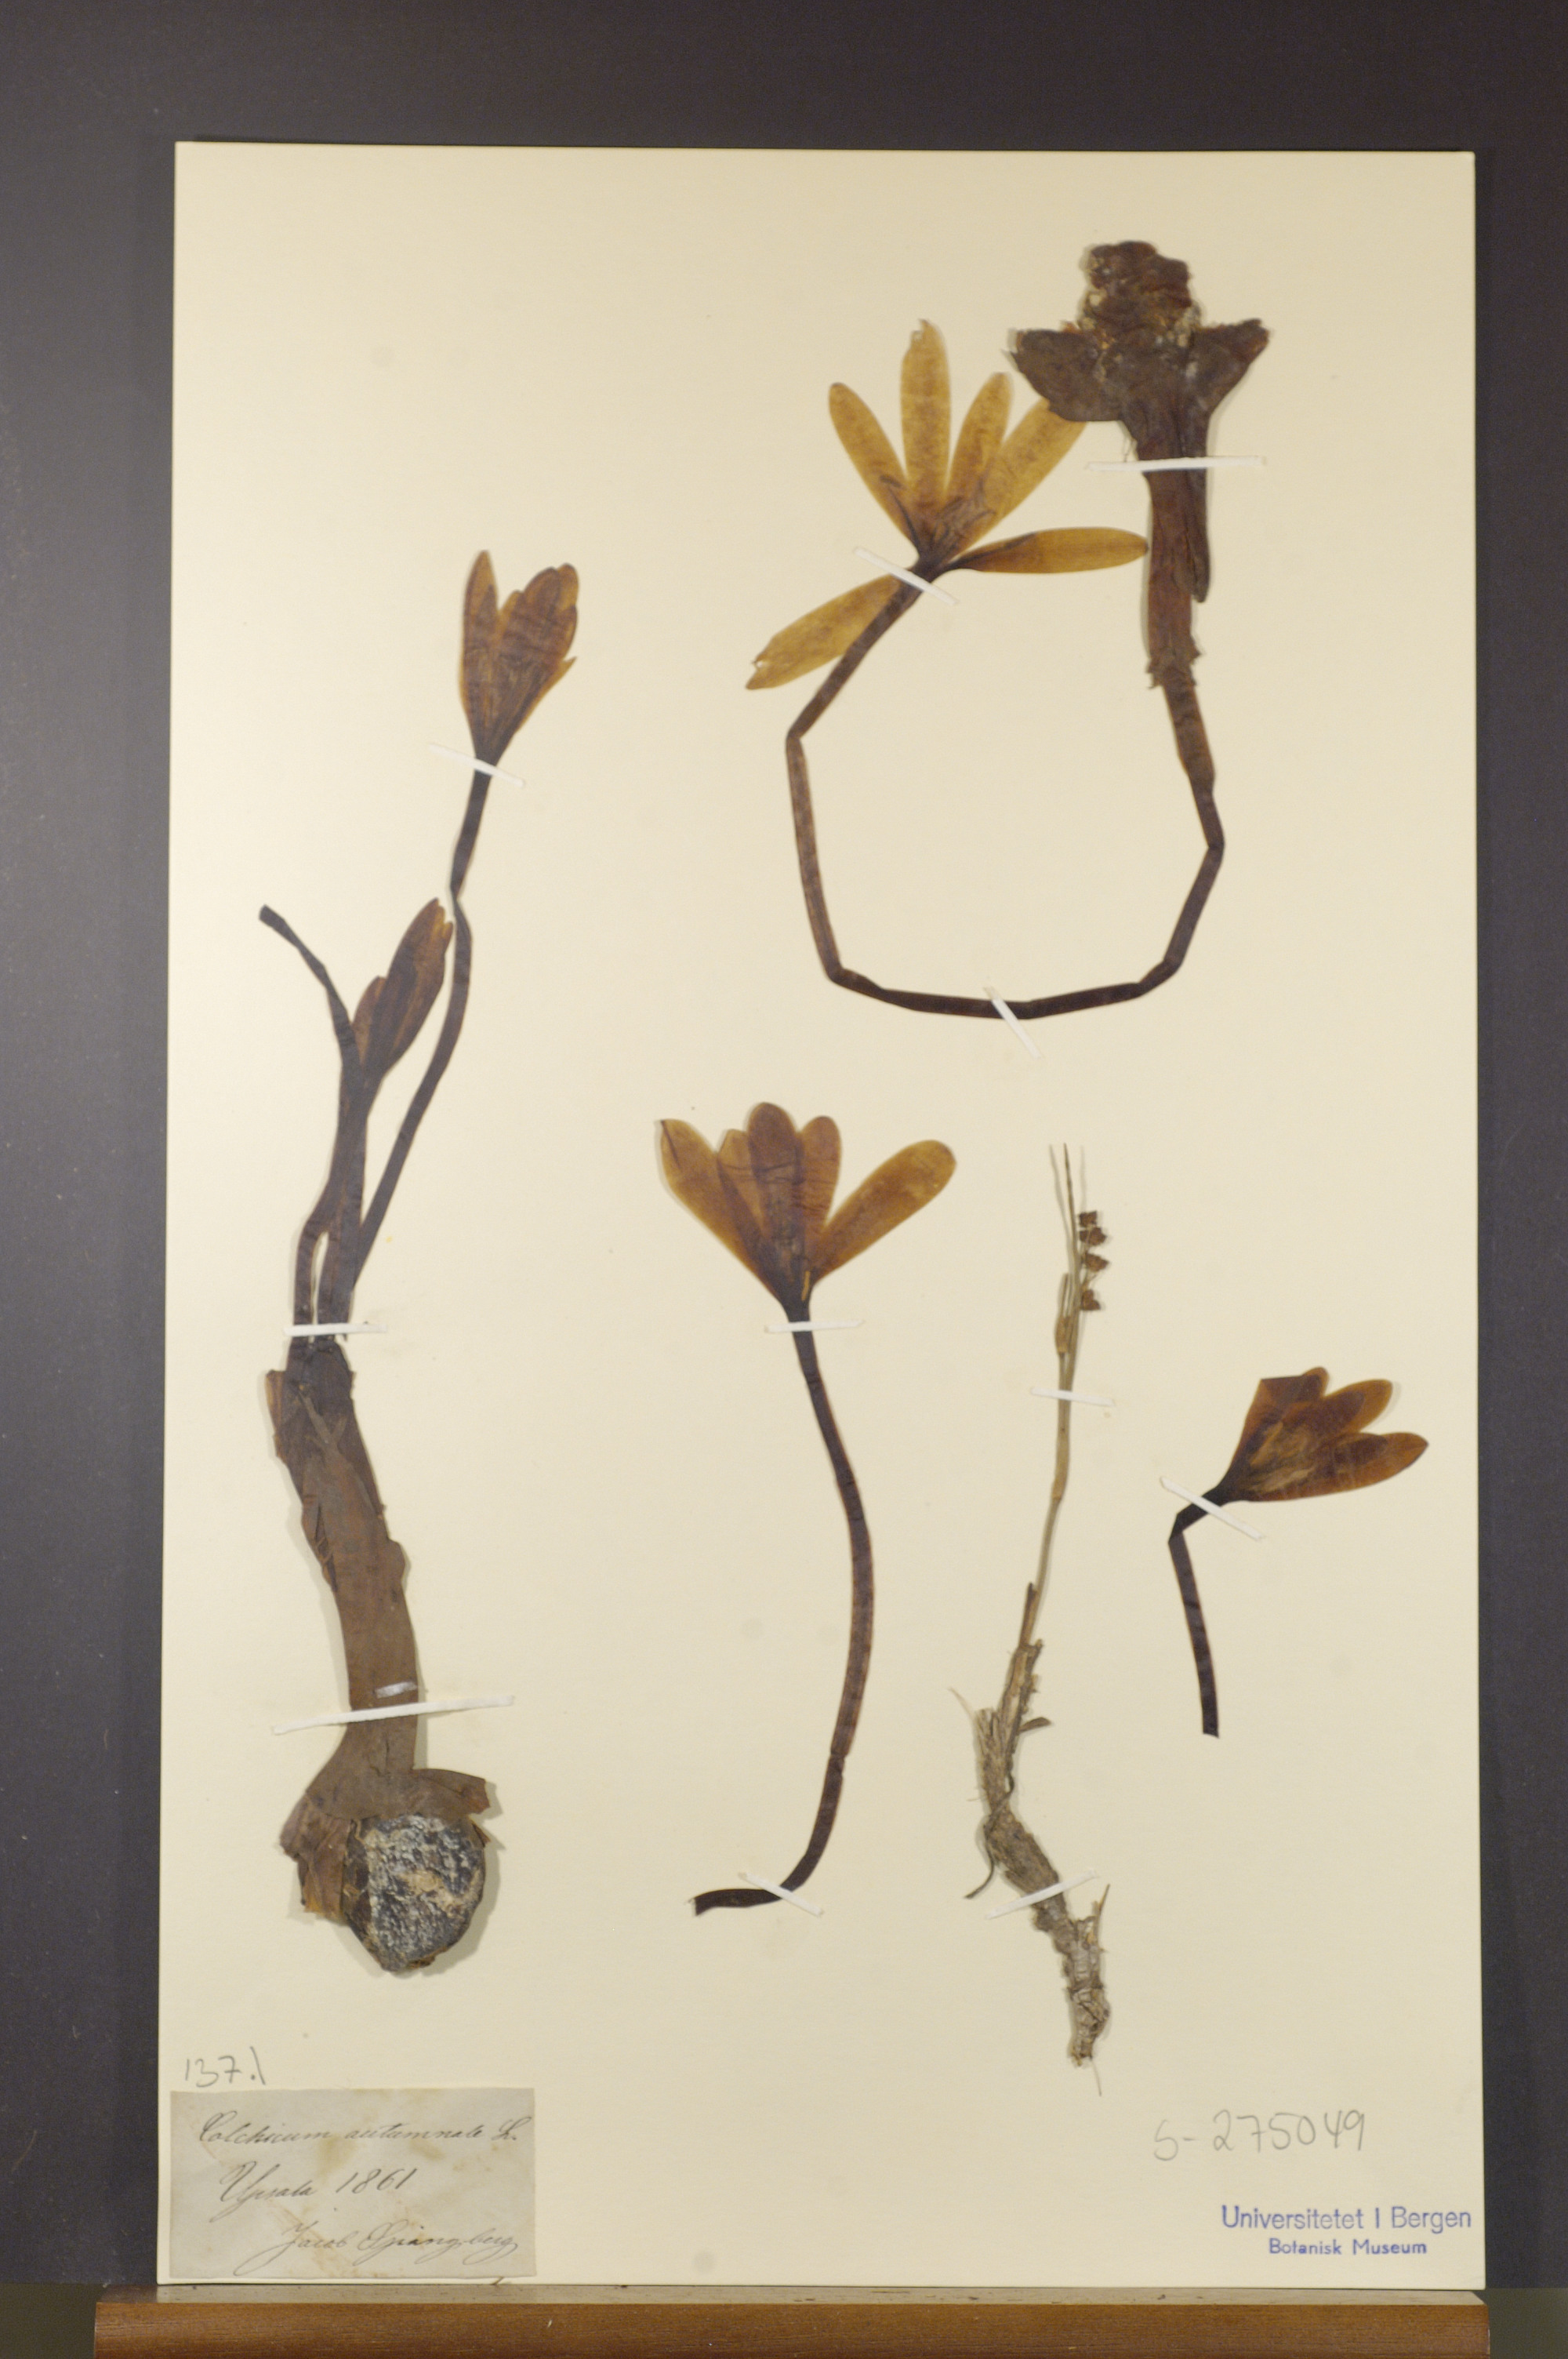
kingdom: Plantae
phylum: Tracheophyta
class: Liliopsida
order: Liliales
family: Colchicaceae
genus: Colchicum
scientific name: Colchicum autumnale
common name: Autumn crocus
